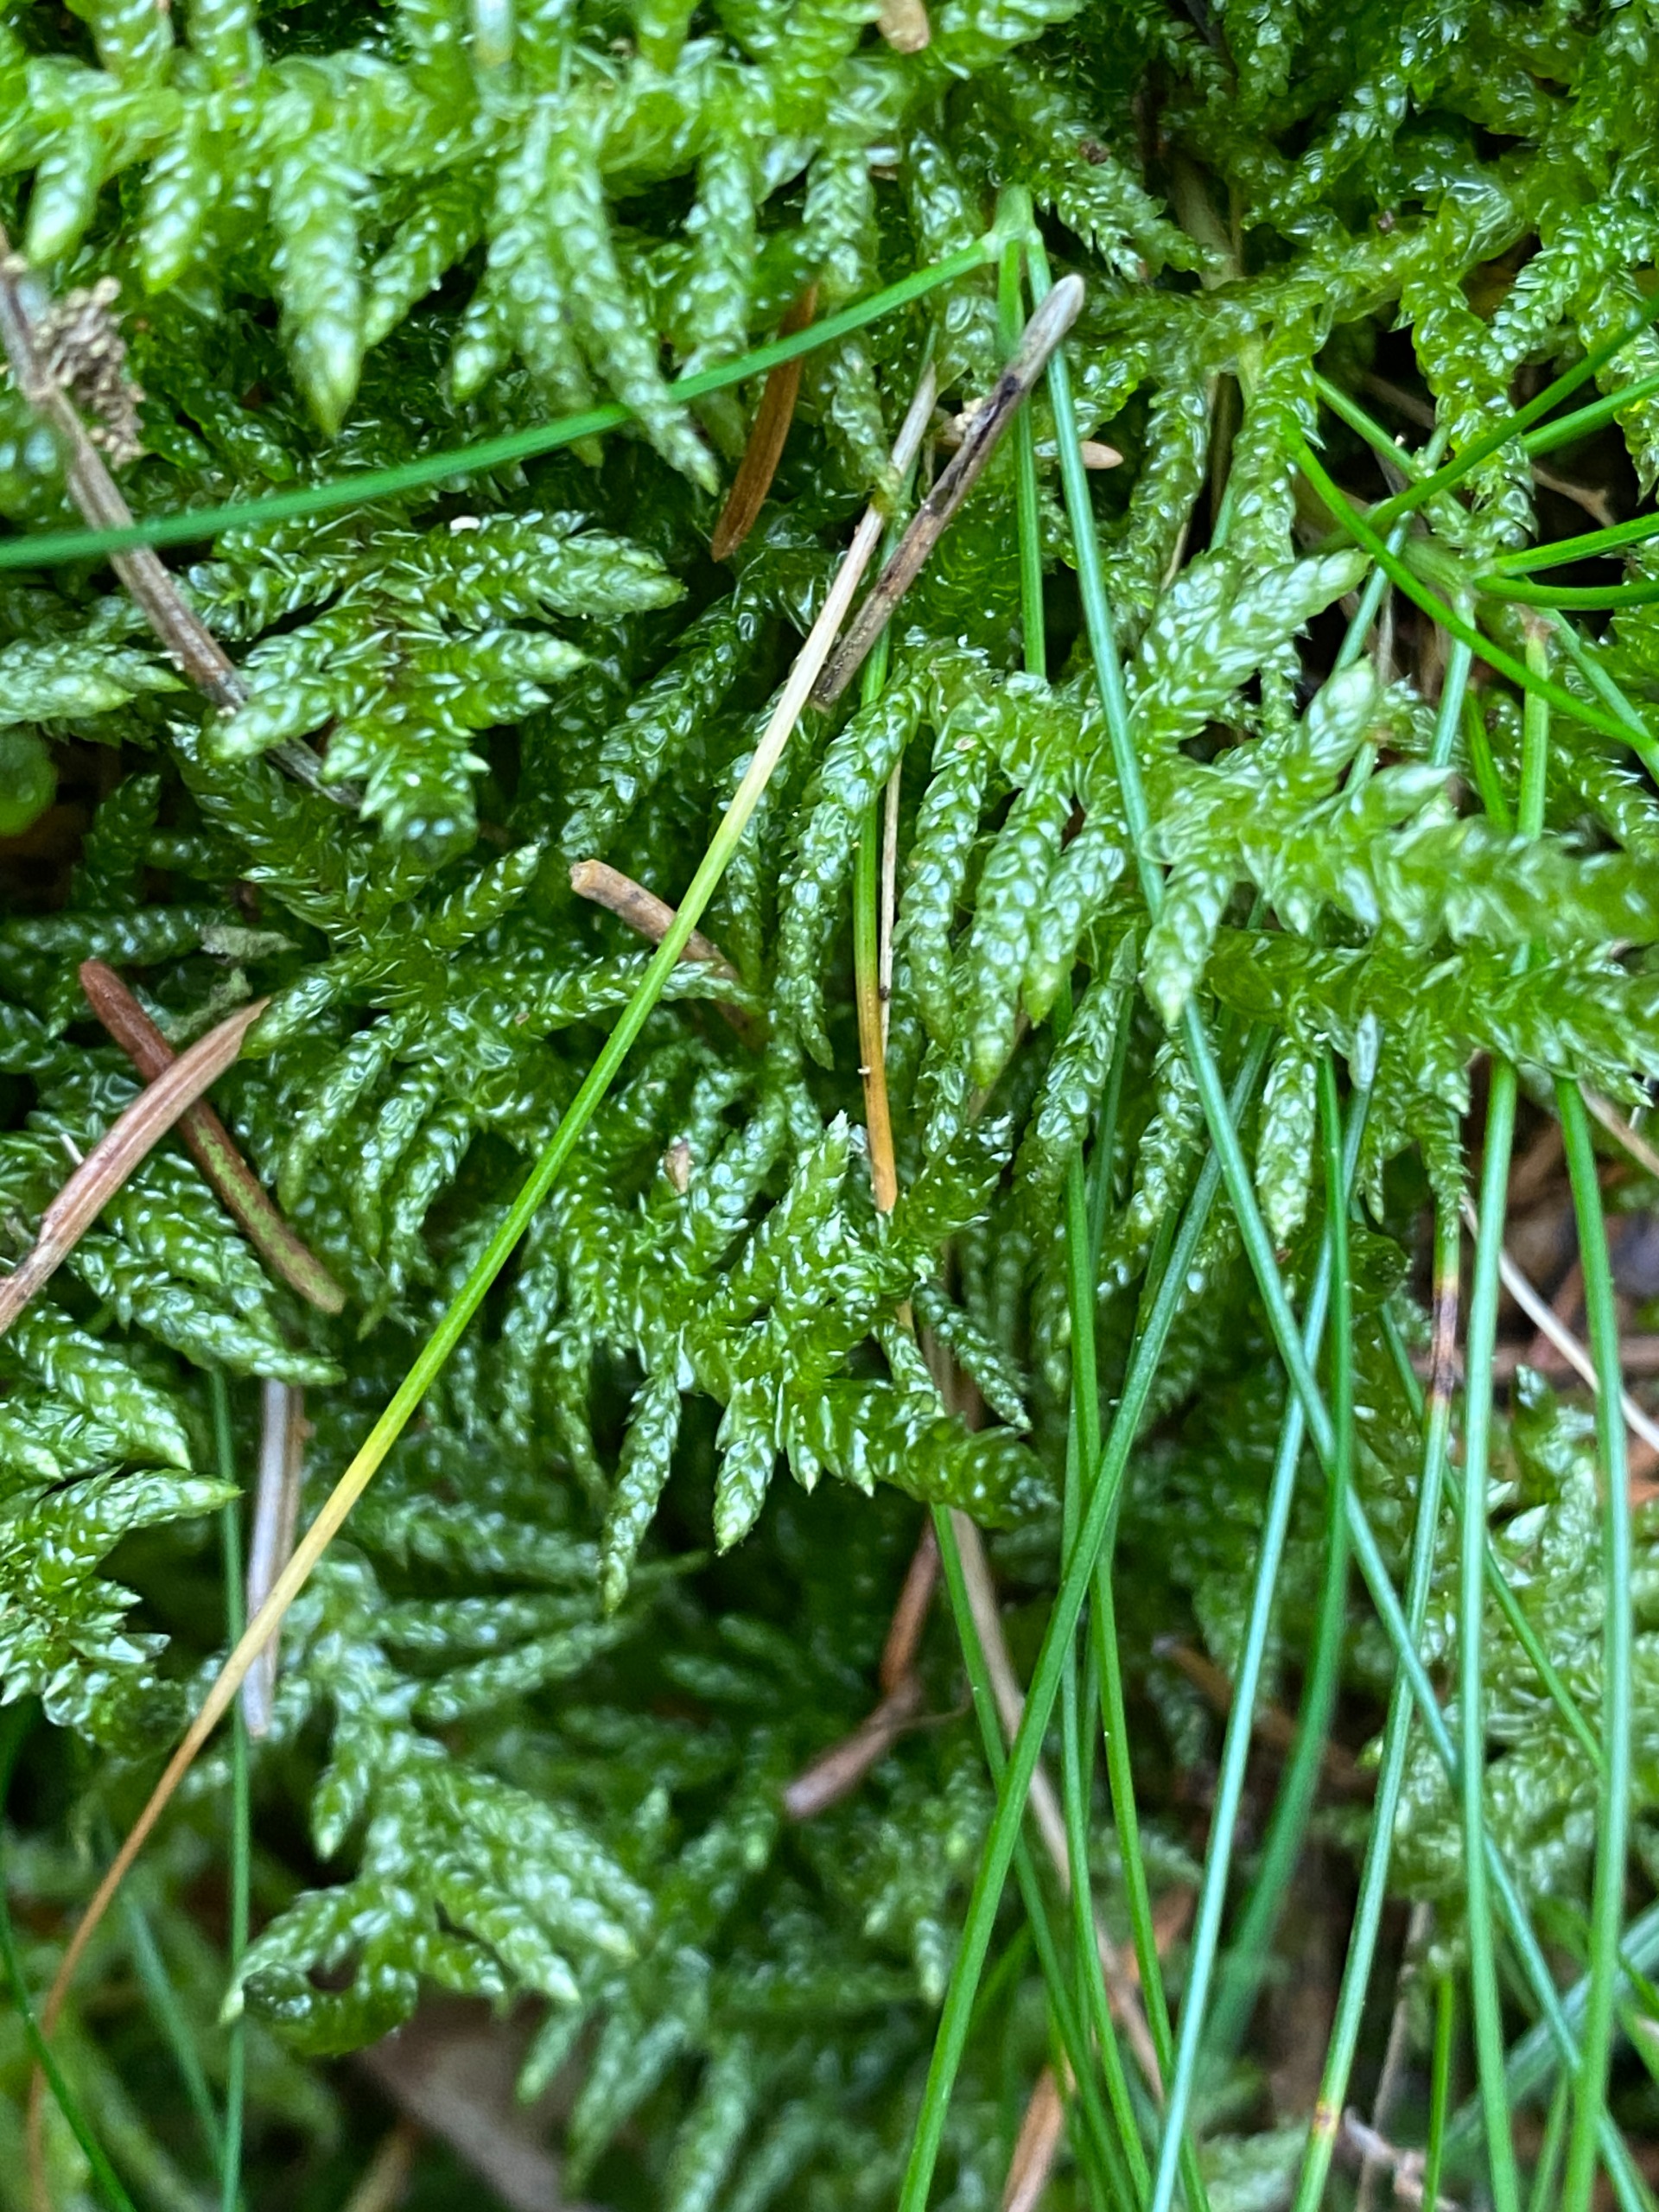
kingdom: Plantae
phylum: Bryophyta
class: Bryopsida
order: Hypnales
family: Brachytheciaceae
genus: Pseudoscleropodium
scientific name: Pseudoscleropodium purum
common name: Hulbladet fedtmos
